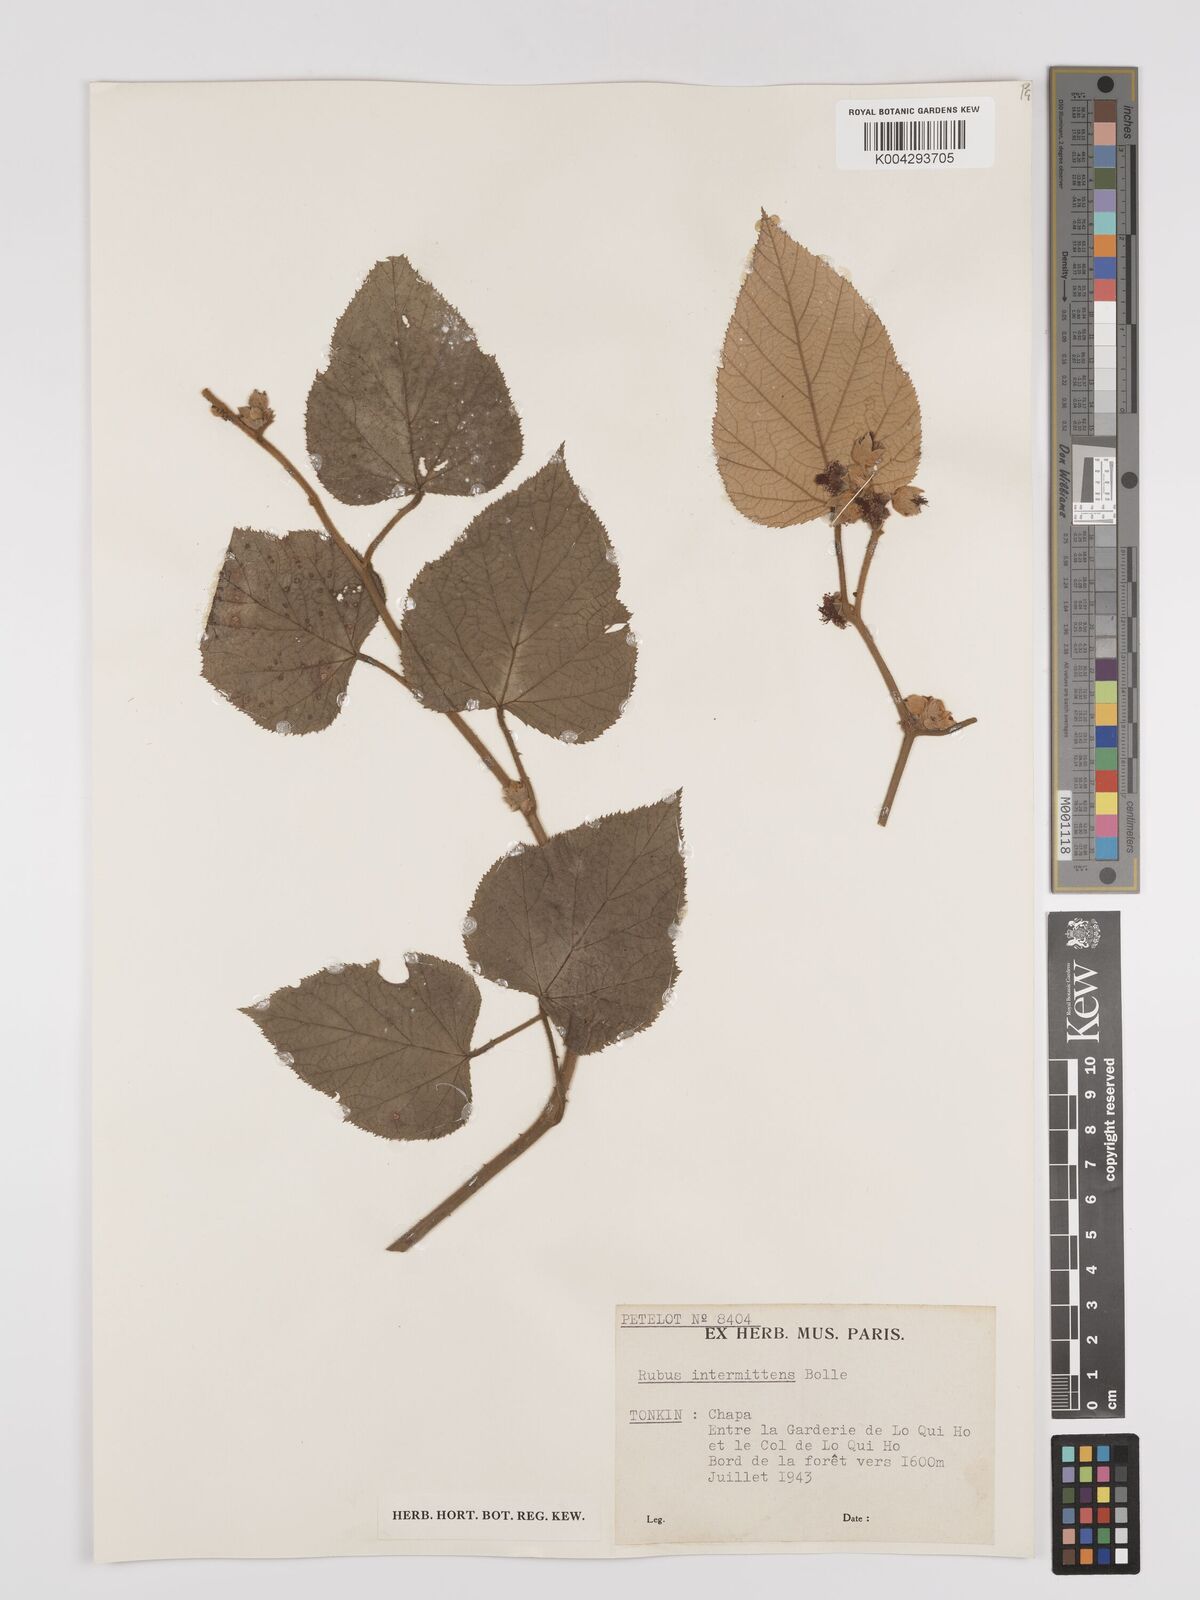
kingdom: Plantae
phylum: Tracheophyta
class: Magnoliopsida
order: Rosales
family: Rosaceae
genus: Rubus
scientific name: Rubus intermittens
